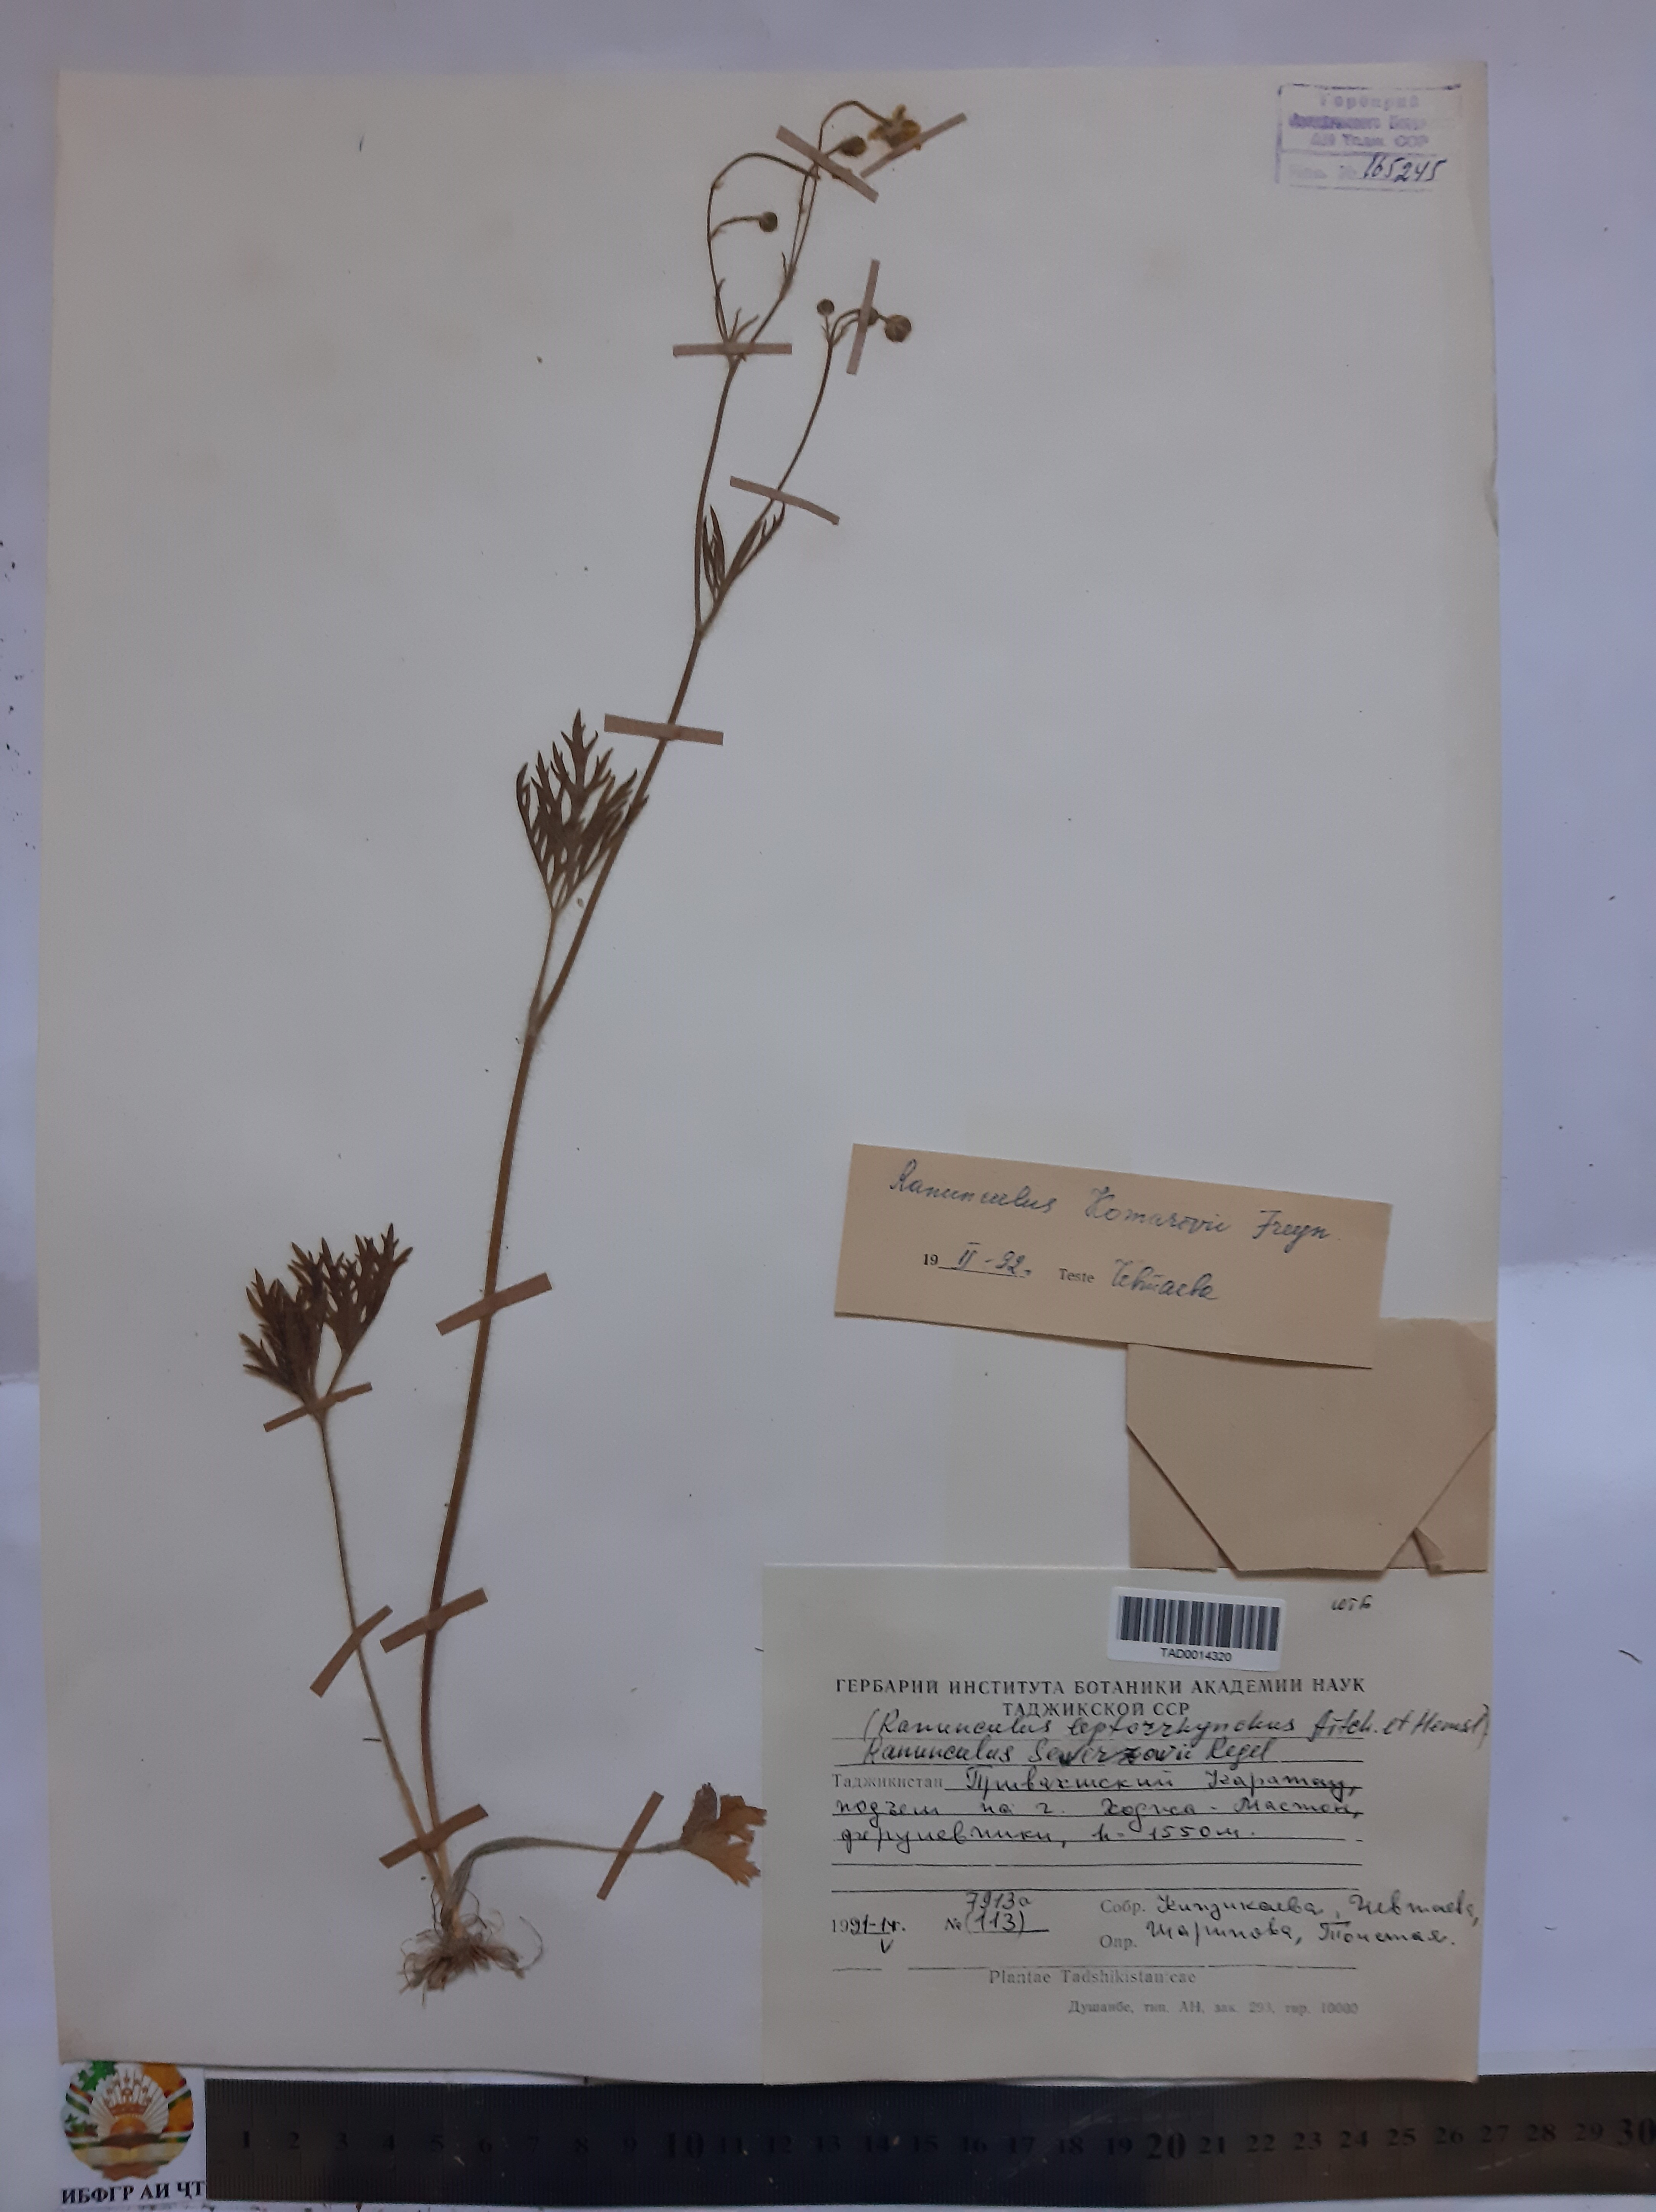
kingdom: Plantae
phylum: Tracheophyta
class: Magnoliopsida
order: Ranunculales
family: Ranunculaceae
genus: Ranunculus
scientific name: Ranunculus leptorrhynchus
